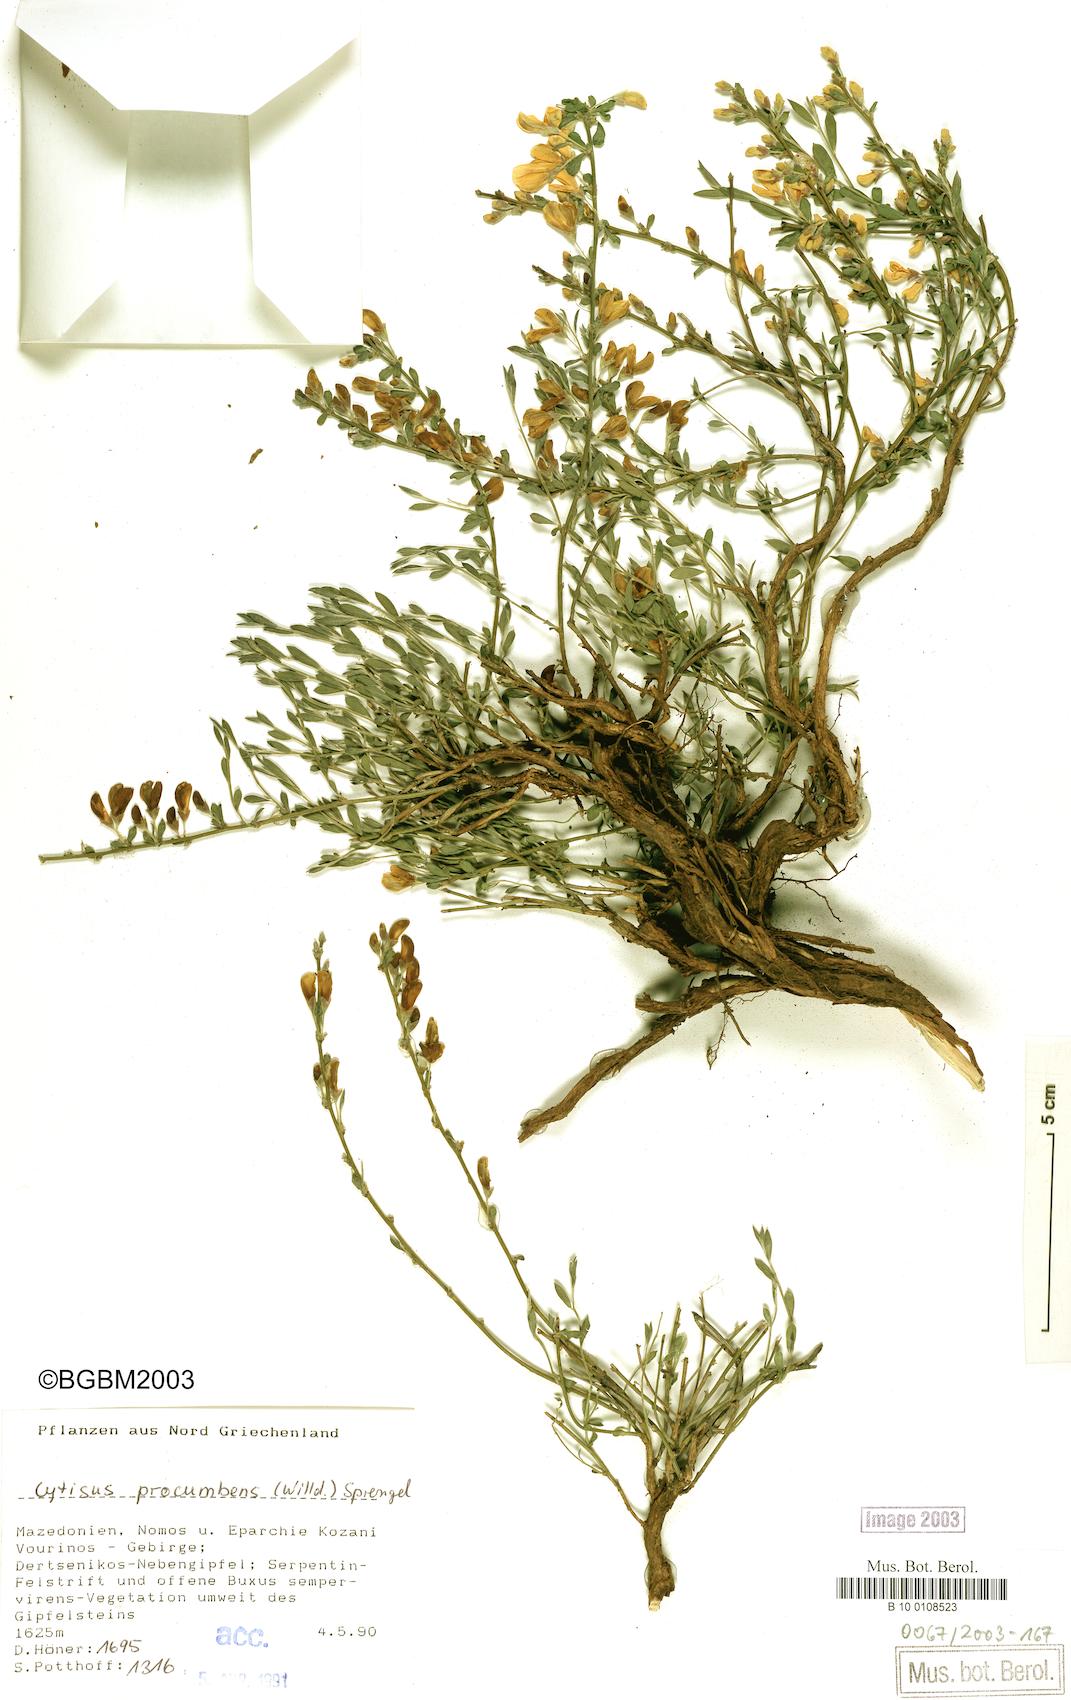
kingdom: Plantae
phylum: Tracheophyta
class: Magnoliopsida
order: Fabales
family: Fabaceae
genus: Cytisus
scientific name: Cytisus procumbens
